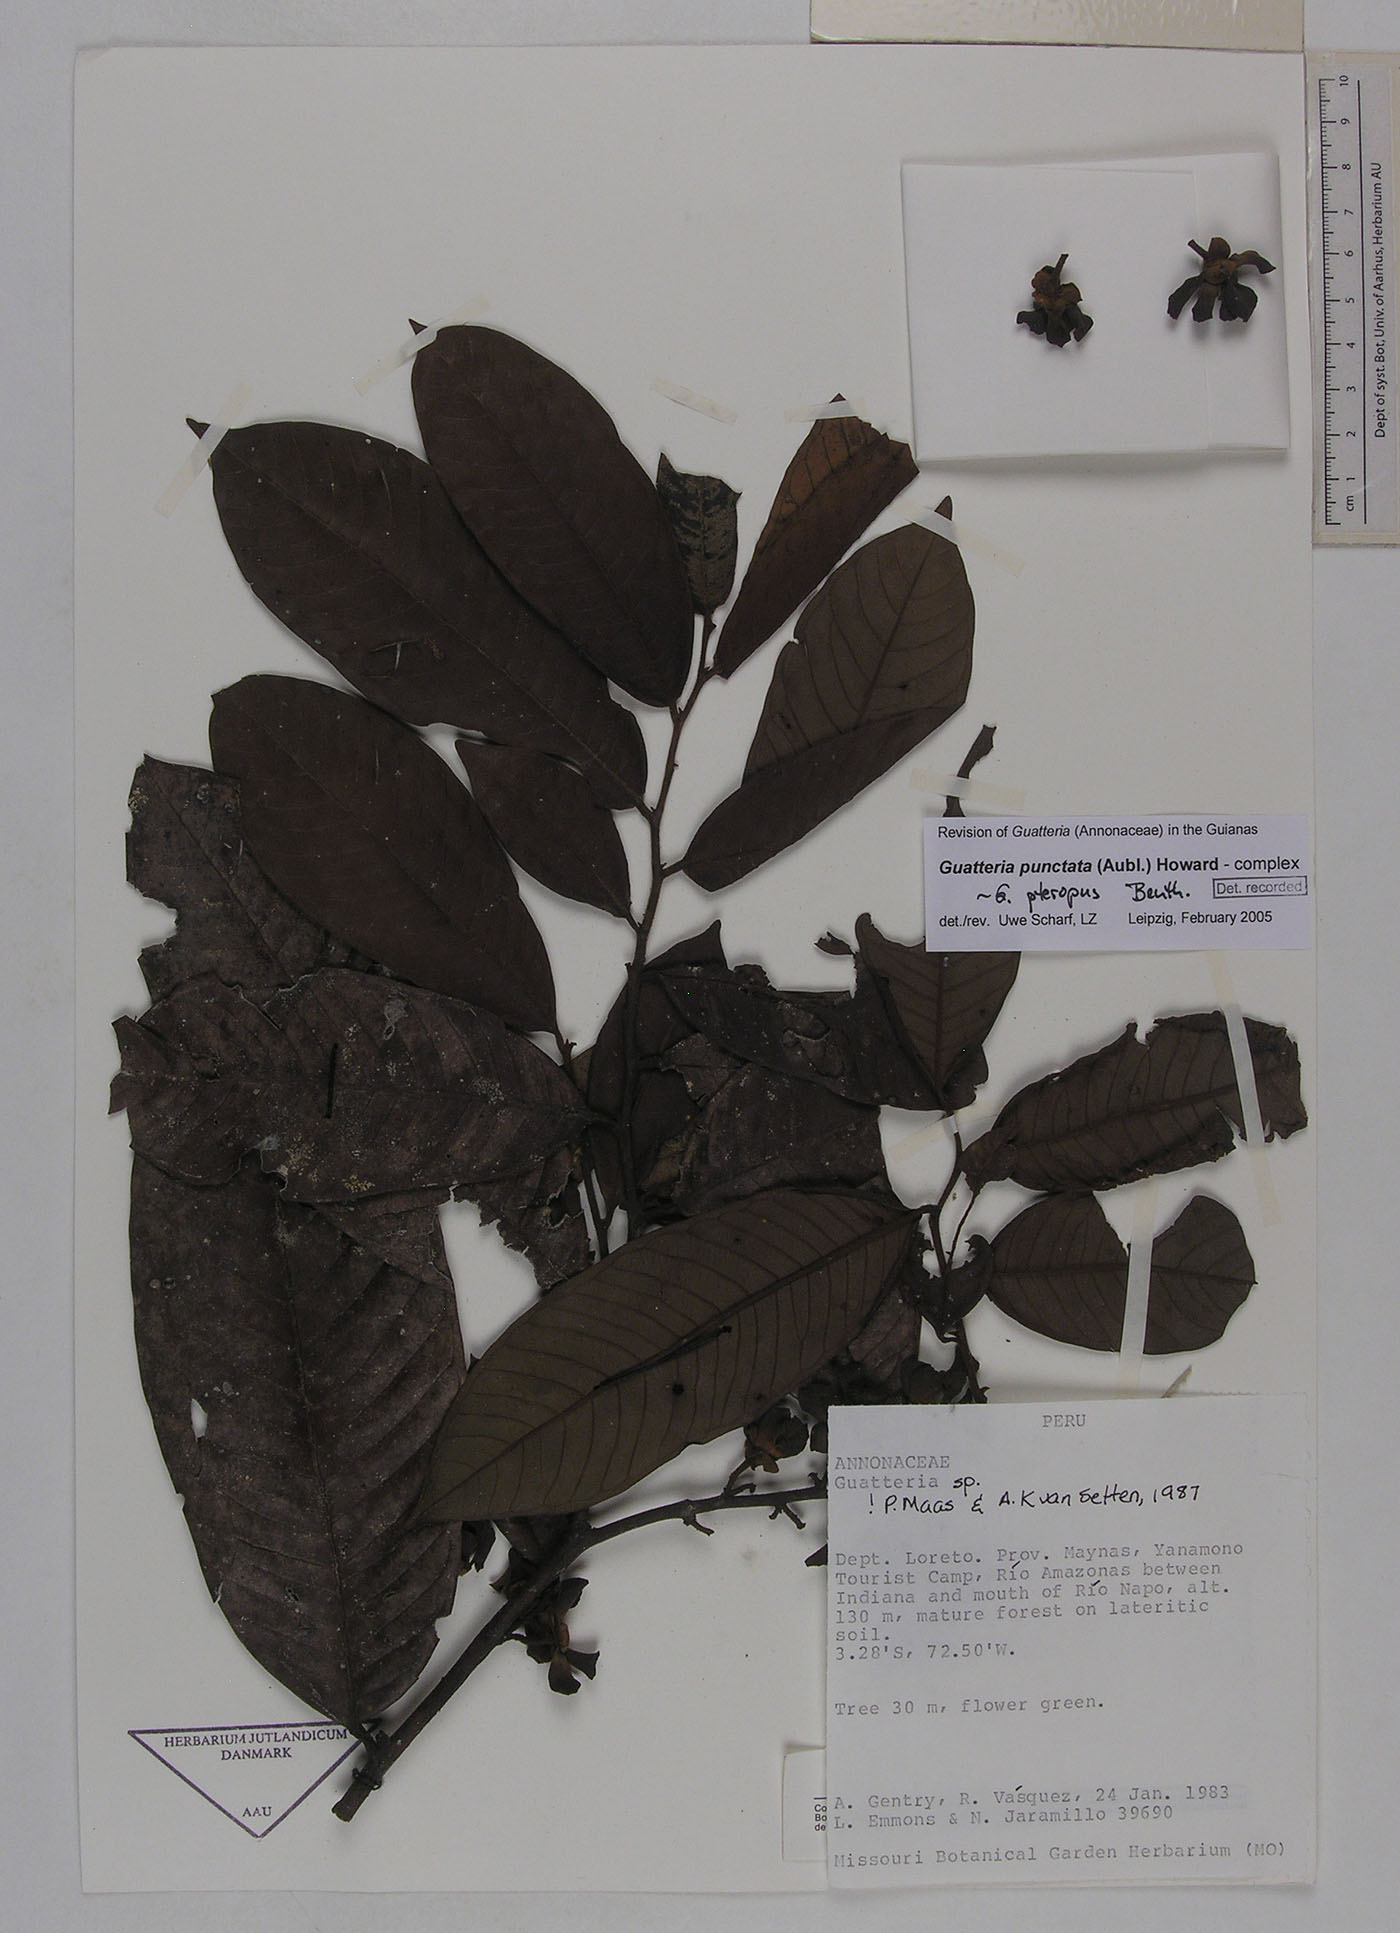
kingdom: Plantae
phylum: Tracheophyta
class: Magnoliopsida
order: Magnoliales
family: Annonaceae
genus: Guatteria
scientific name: Guatteria revoluta
